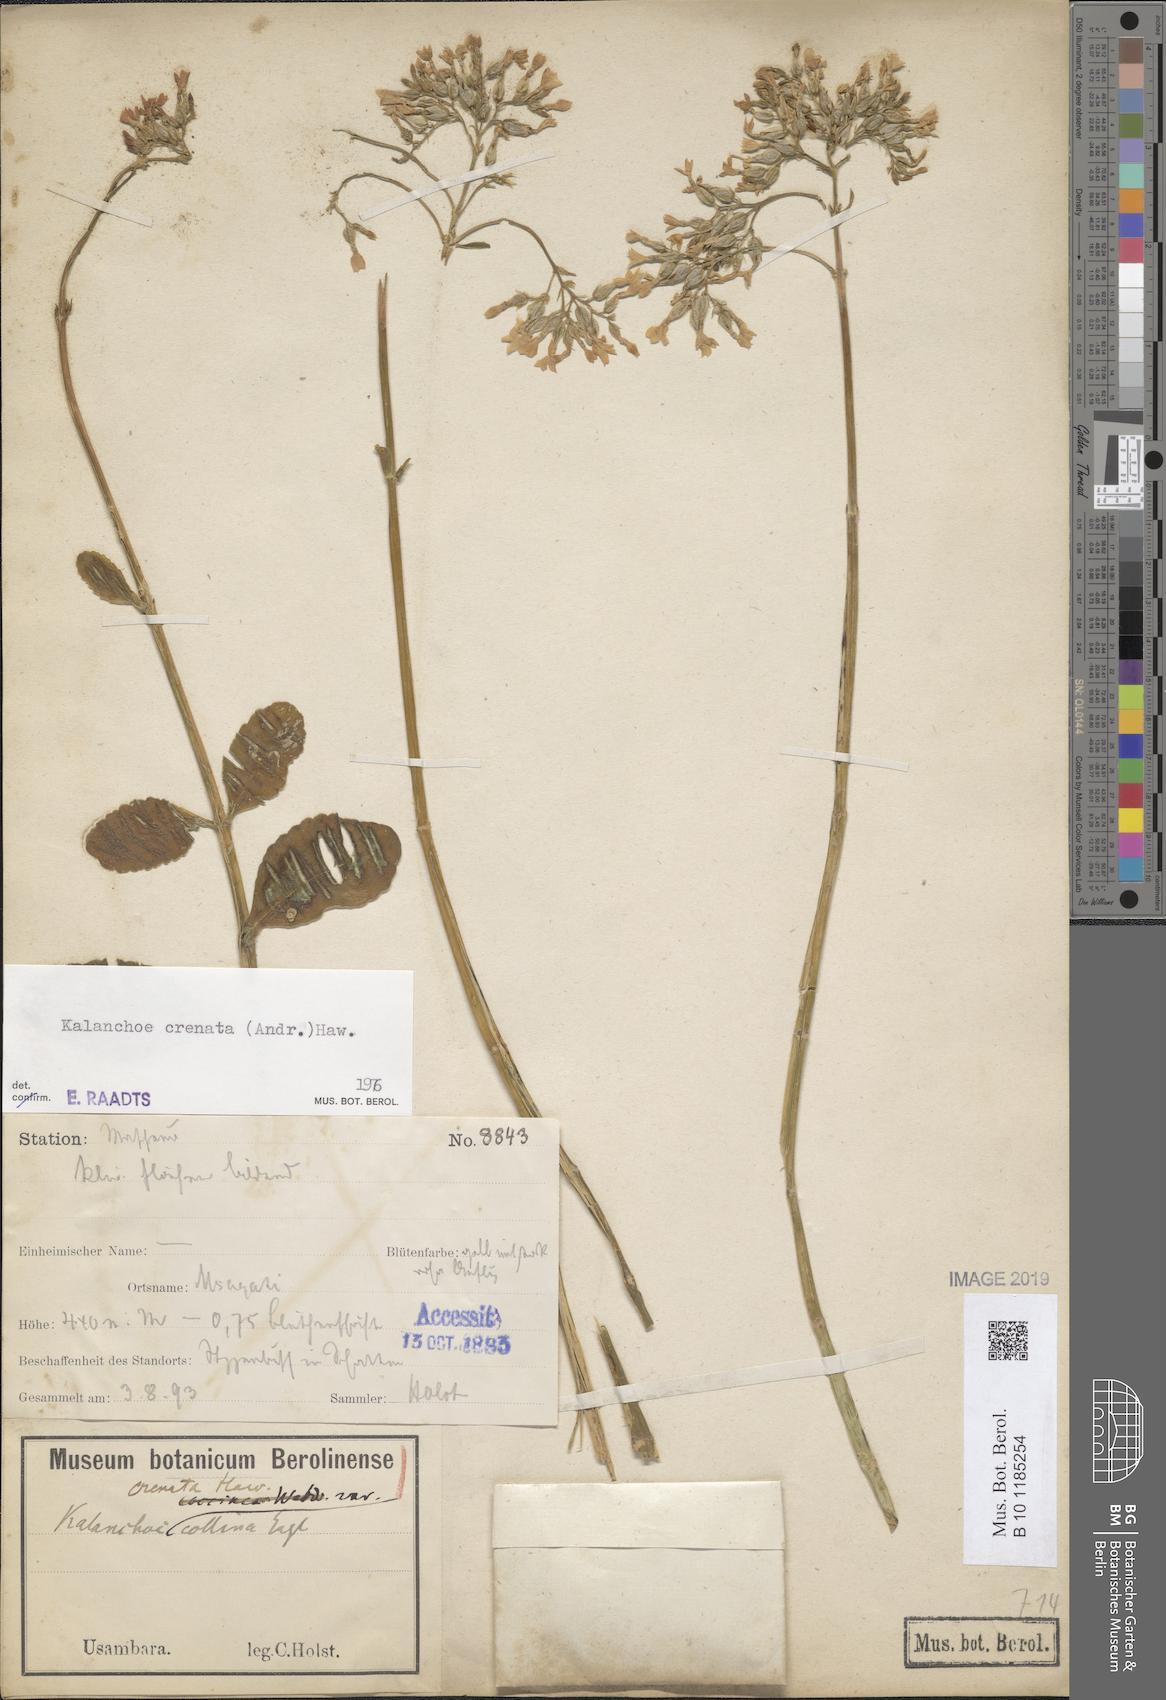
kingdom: Plantae
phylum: Tracheophyta
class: Magnoliopsida
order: Saxifragales
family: Crassulaceae
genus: Kalanchoe
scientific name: Kalanchoe crenata
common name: Neverdie
